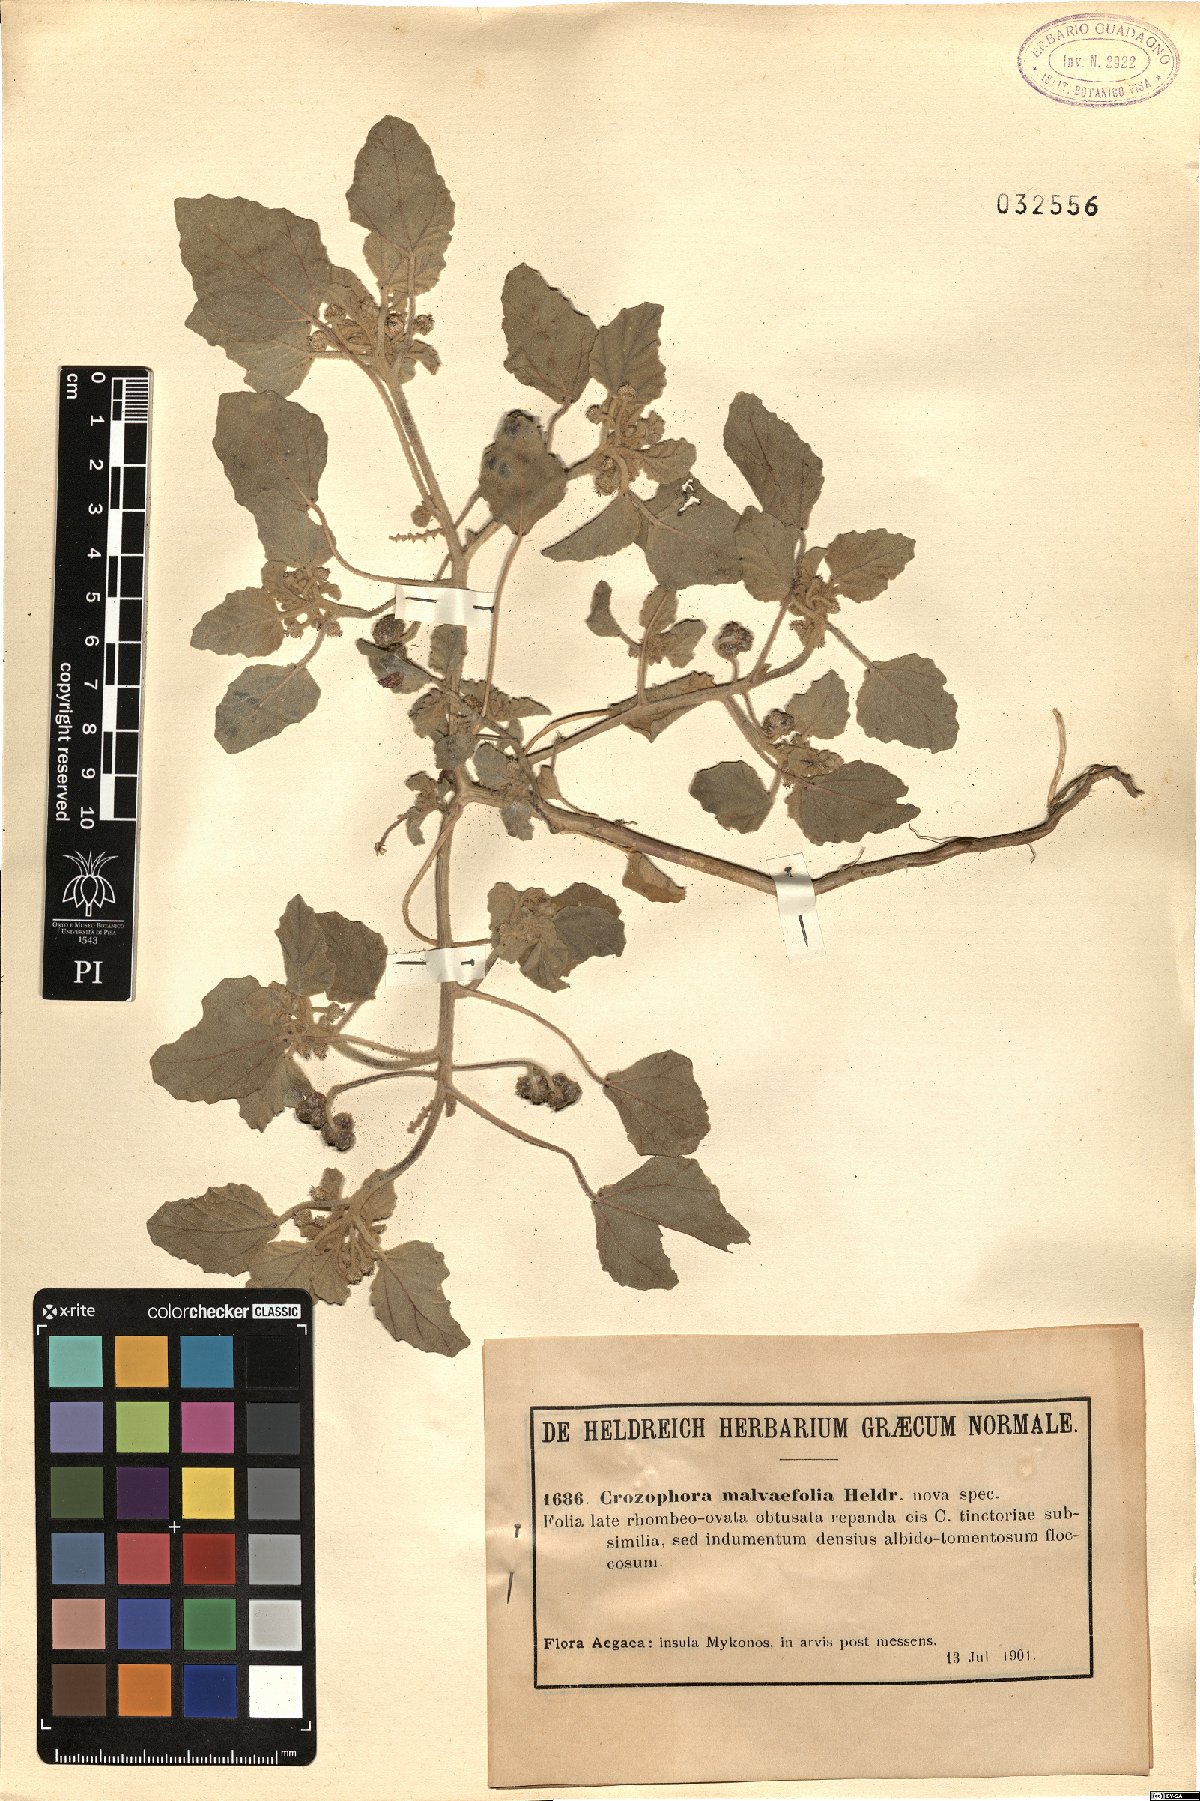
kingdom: Plantae
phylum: Tracheophyta
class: Magnoliopsida
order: Malpighiales
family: Euphorbiaceae
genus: Chrozophora
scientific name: Chrozophora
